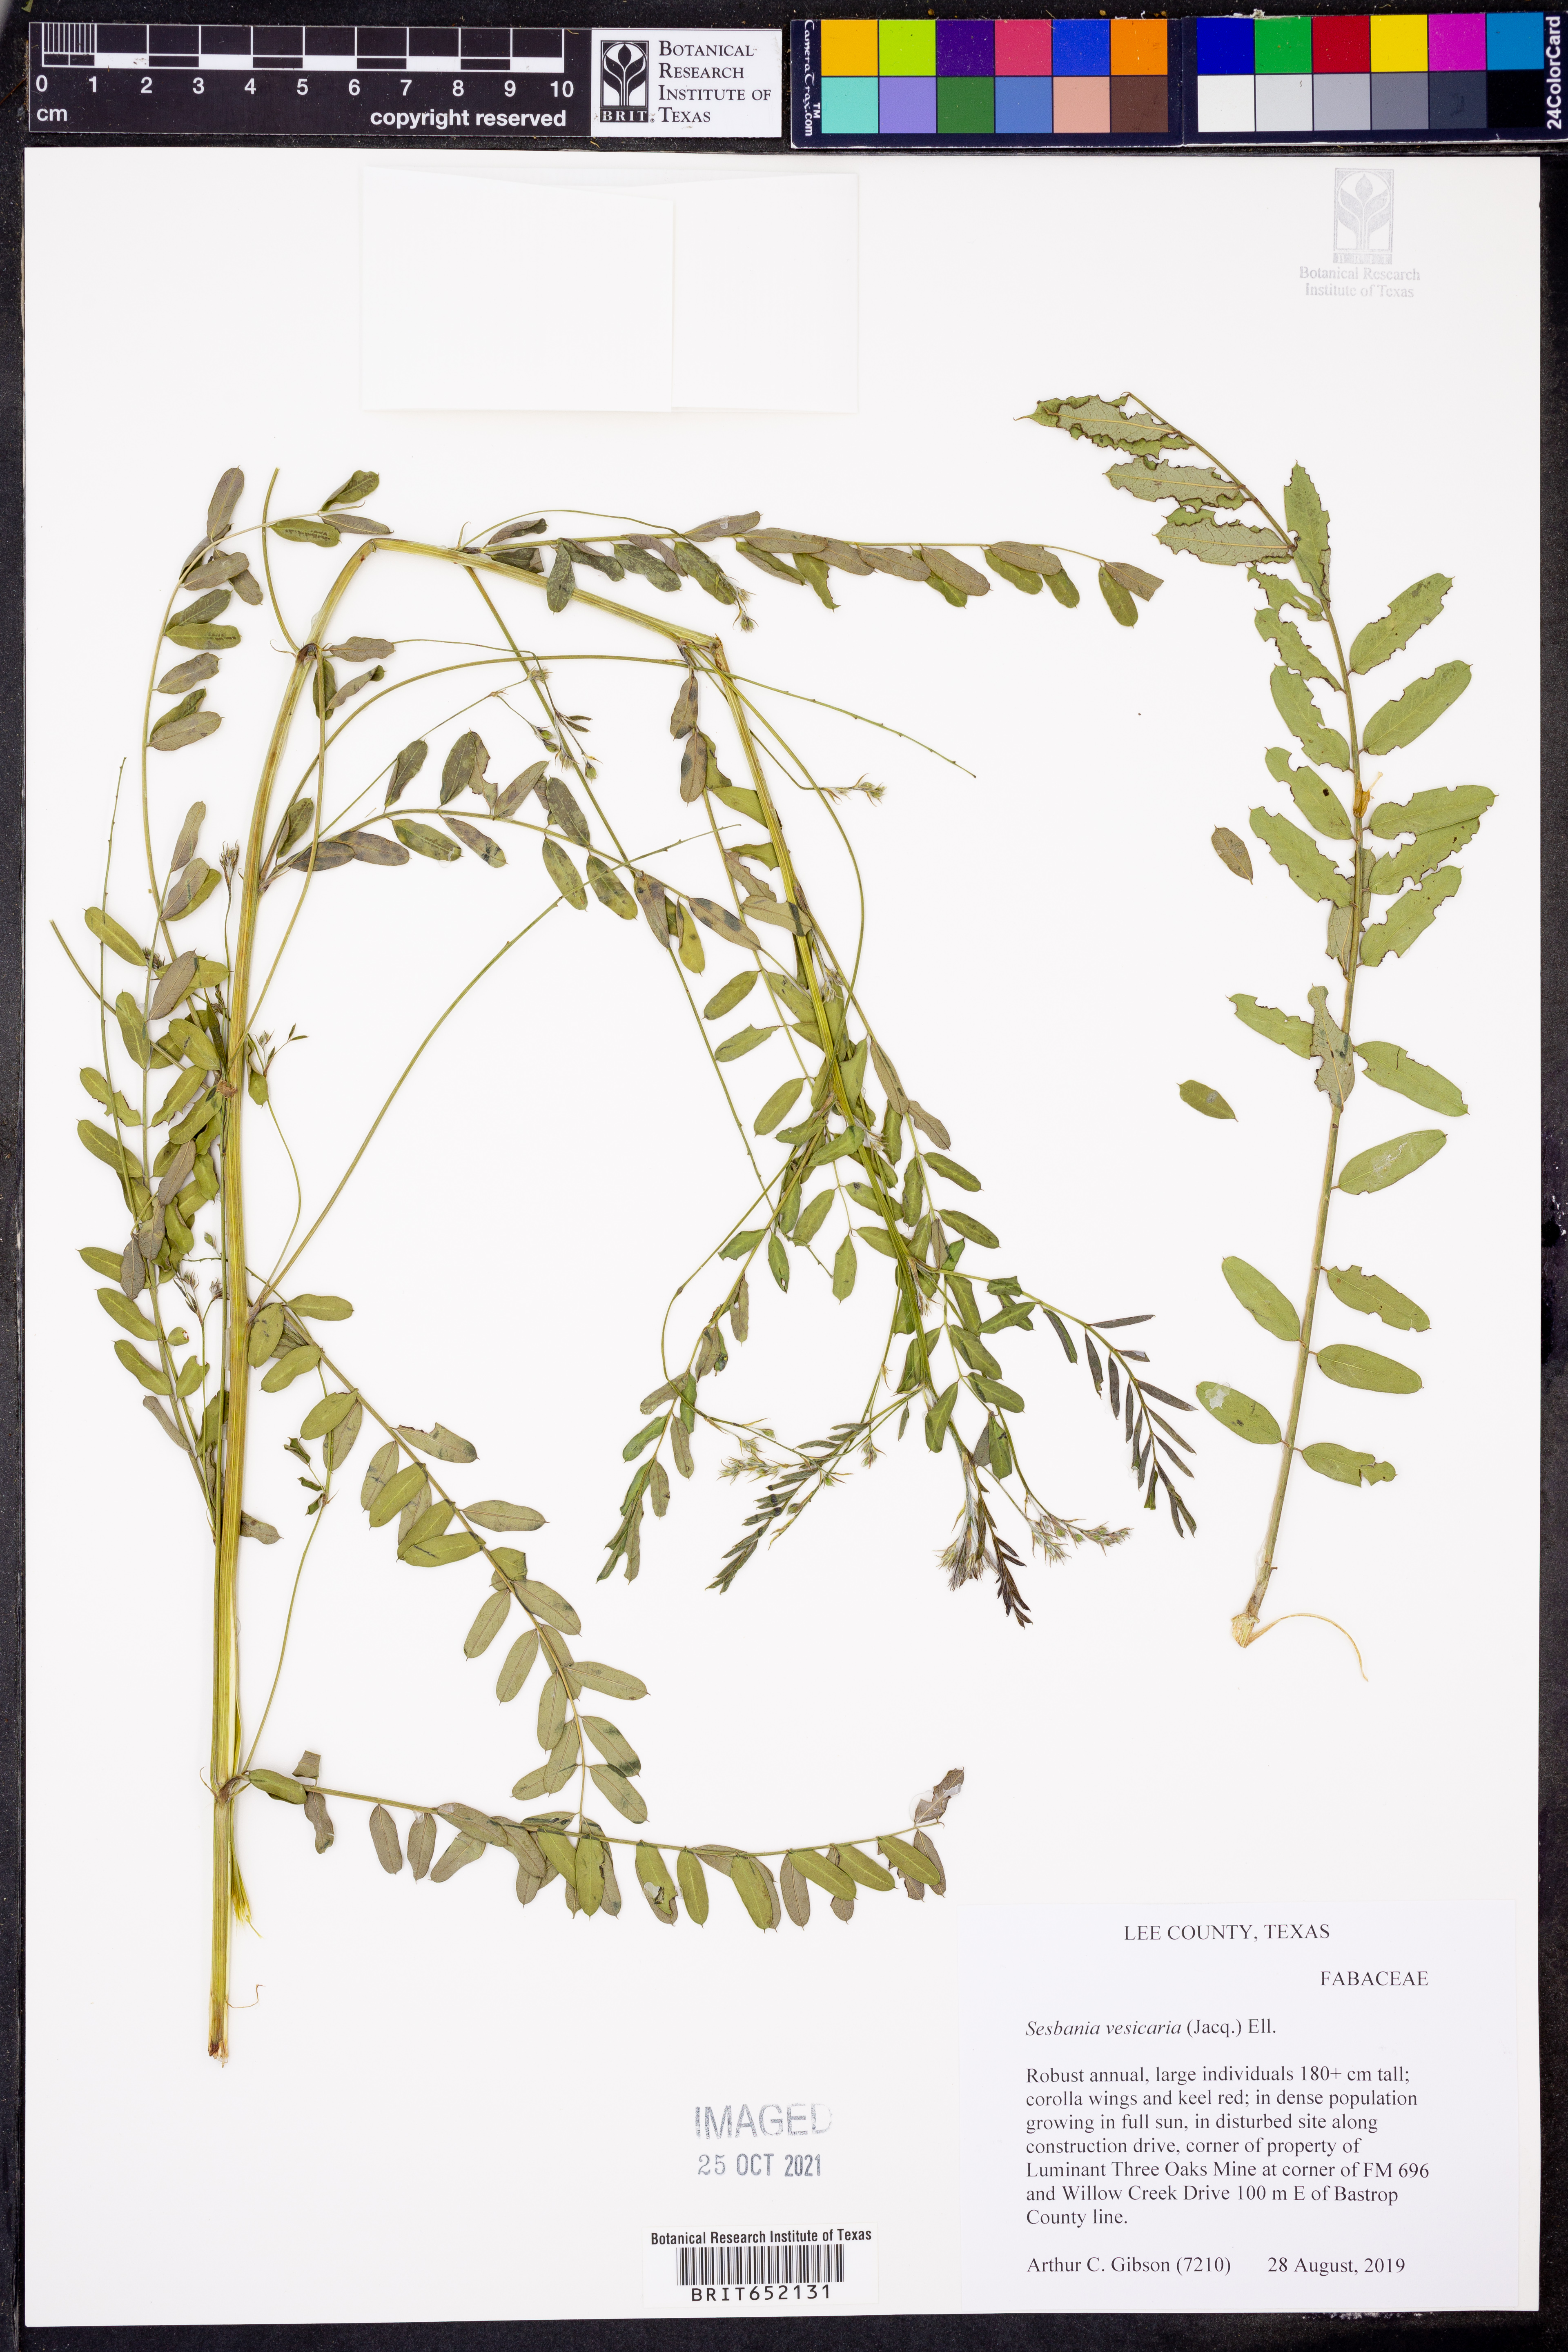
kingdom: Plantae
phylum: Tracheophyta
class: Magnoliopsida
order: Fabales
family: Fabaceae
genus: Sesbania
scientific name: Sesbania vesicaria
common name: Bagpod
